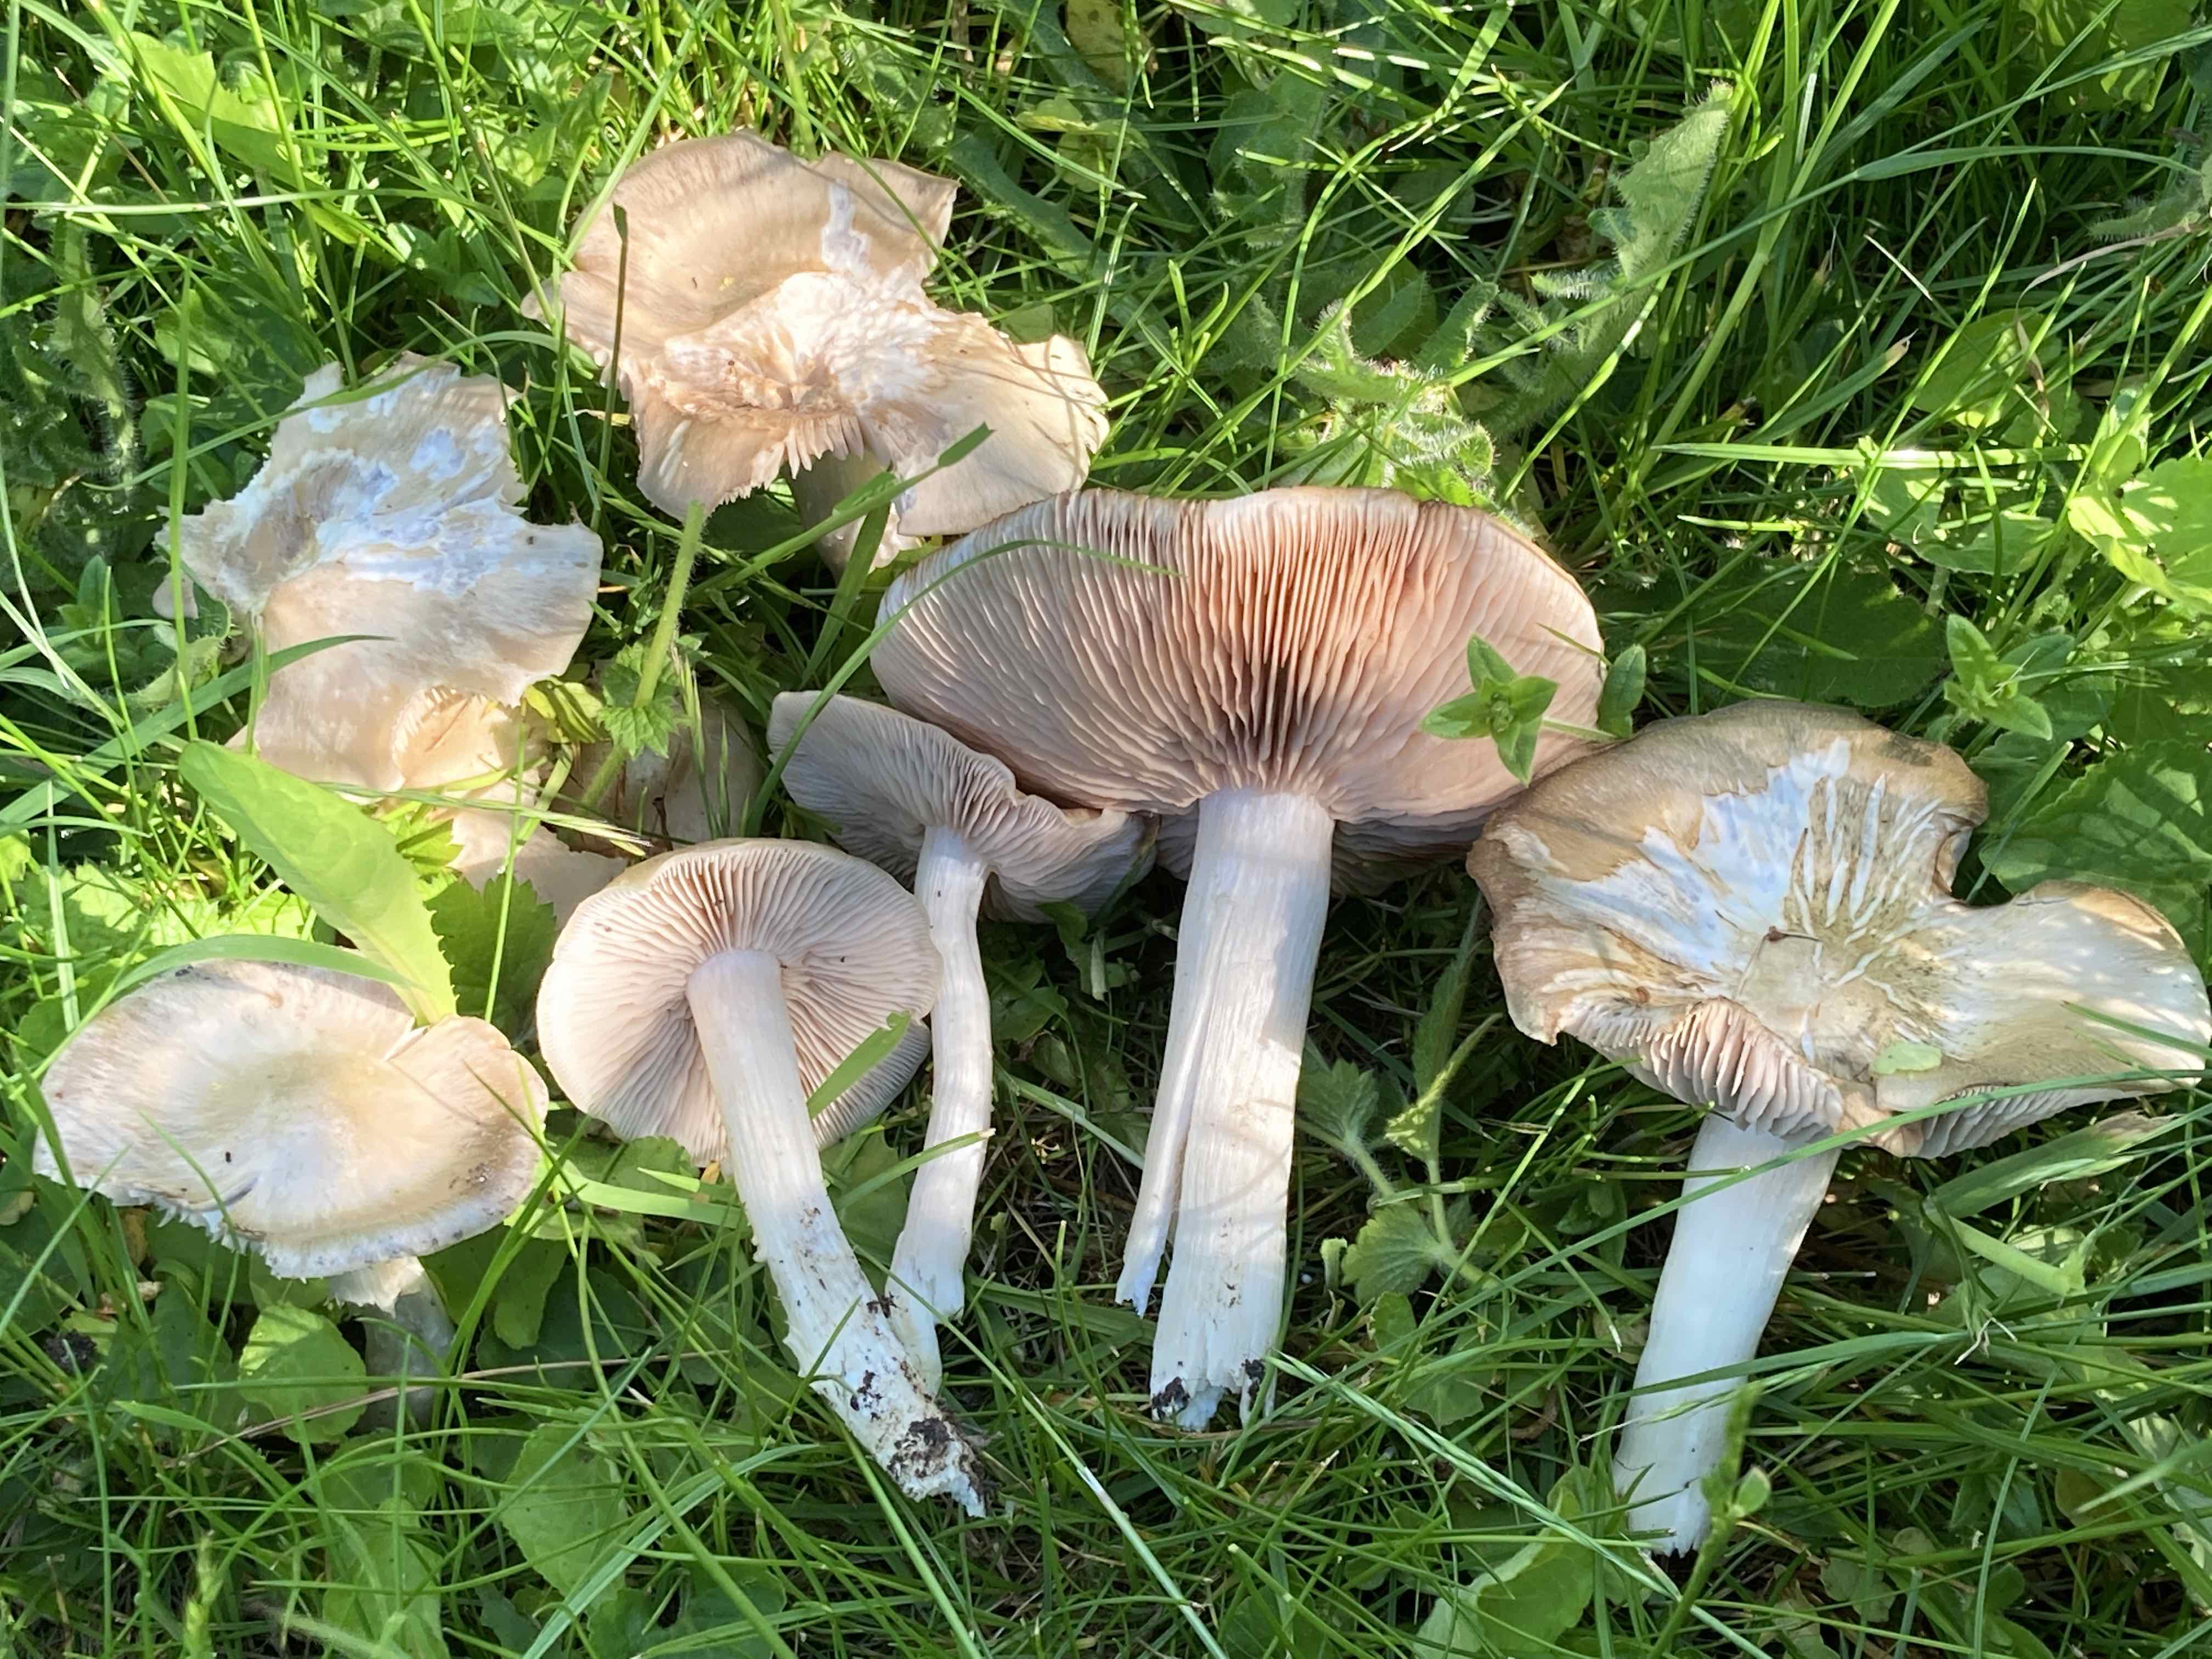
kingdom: Fungi
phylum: Basidiomycota
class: Agaricomycetes
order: Agaricales
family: Entolomataceae
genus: Entoloma
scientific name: Entoloma
